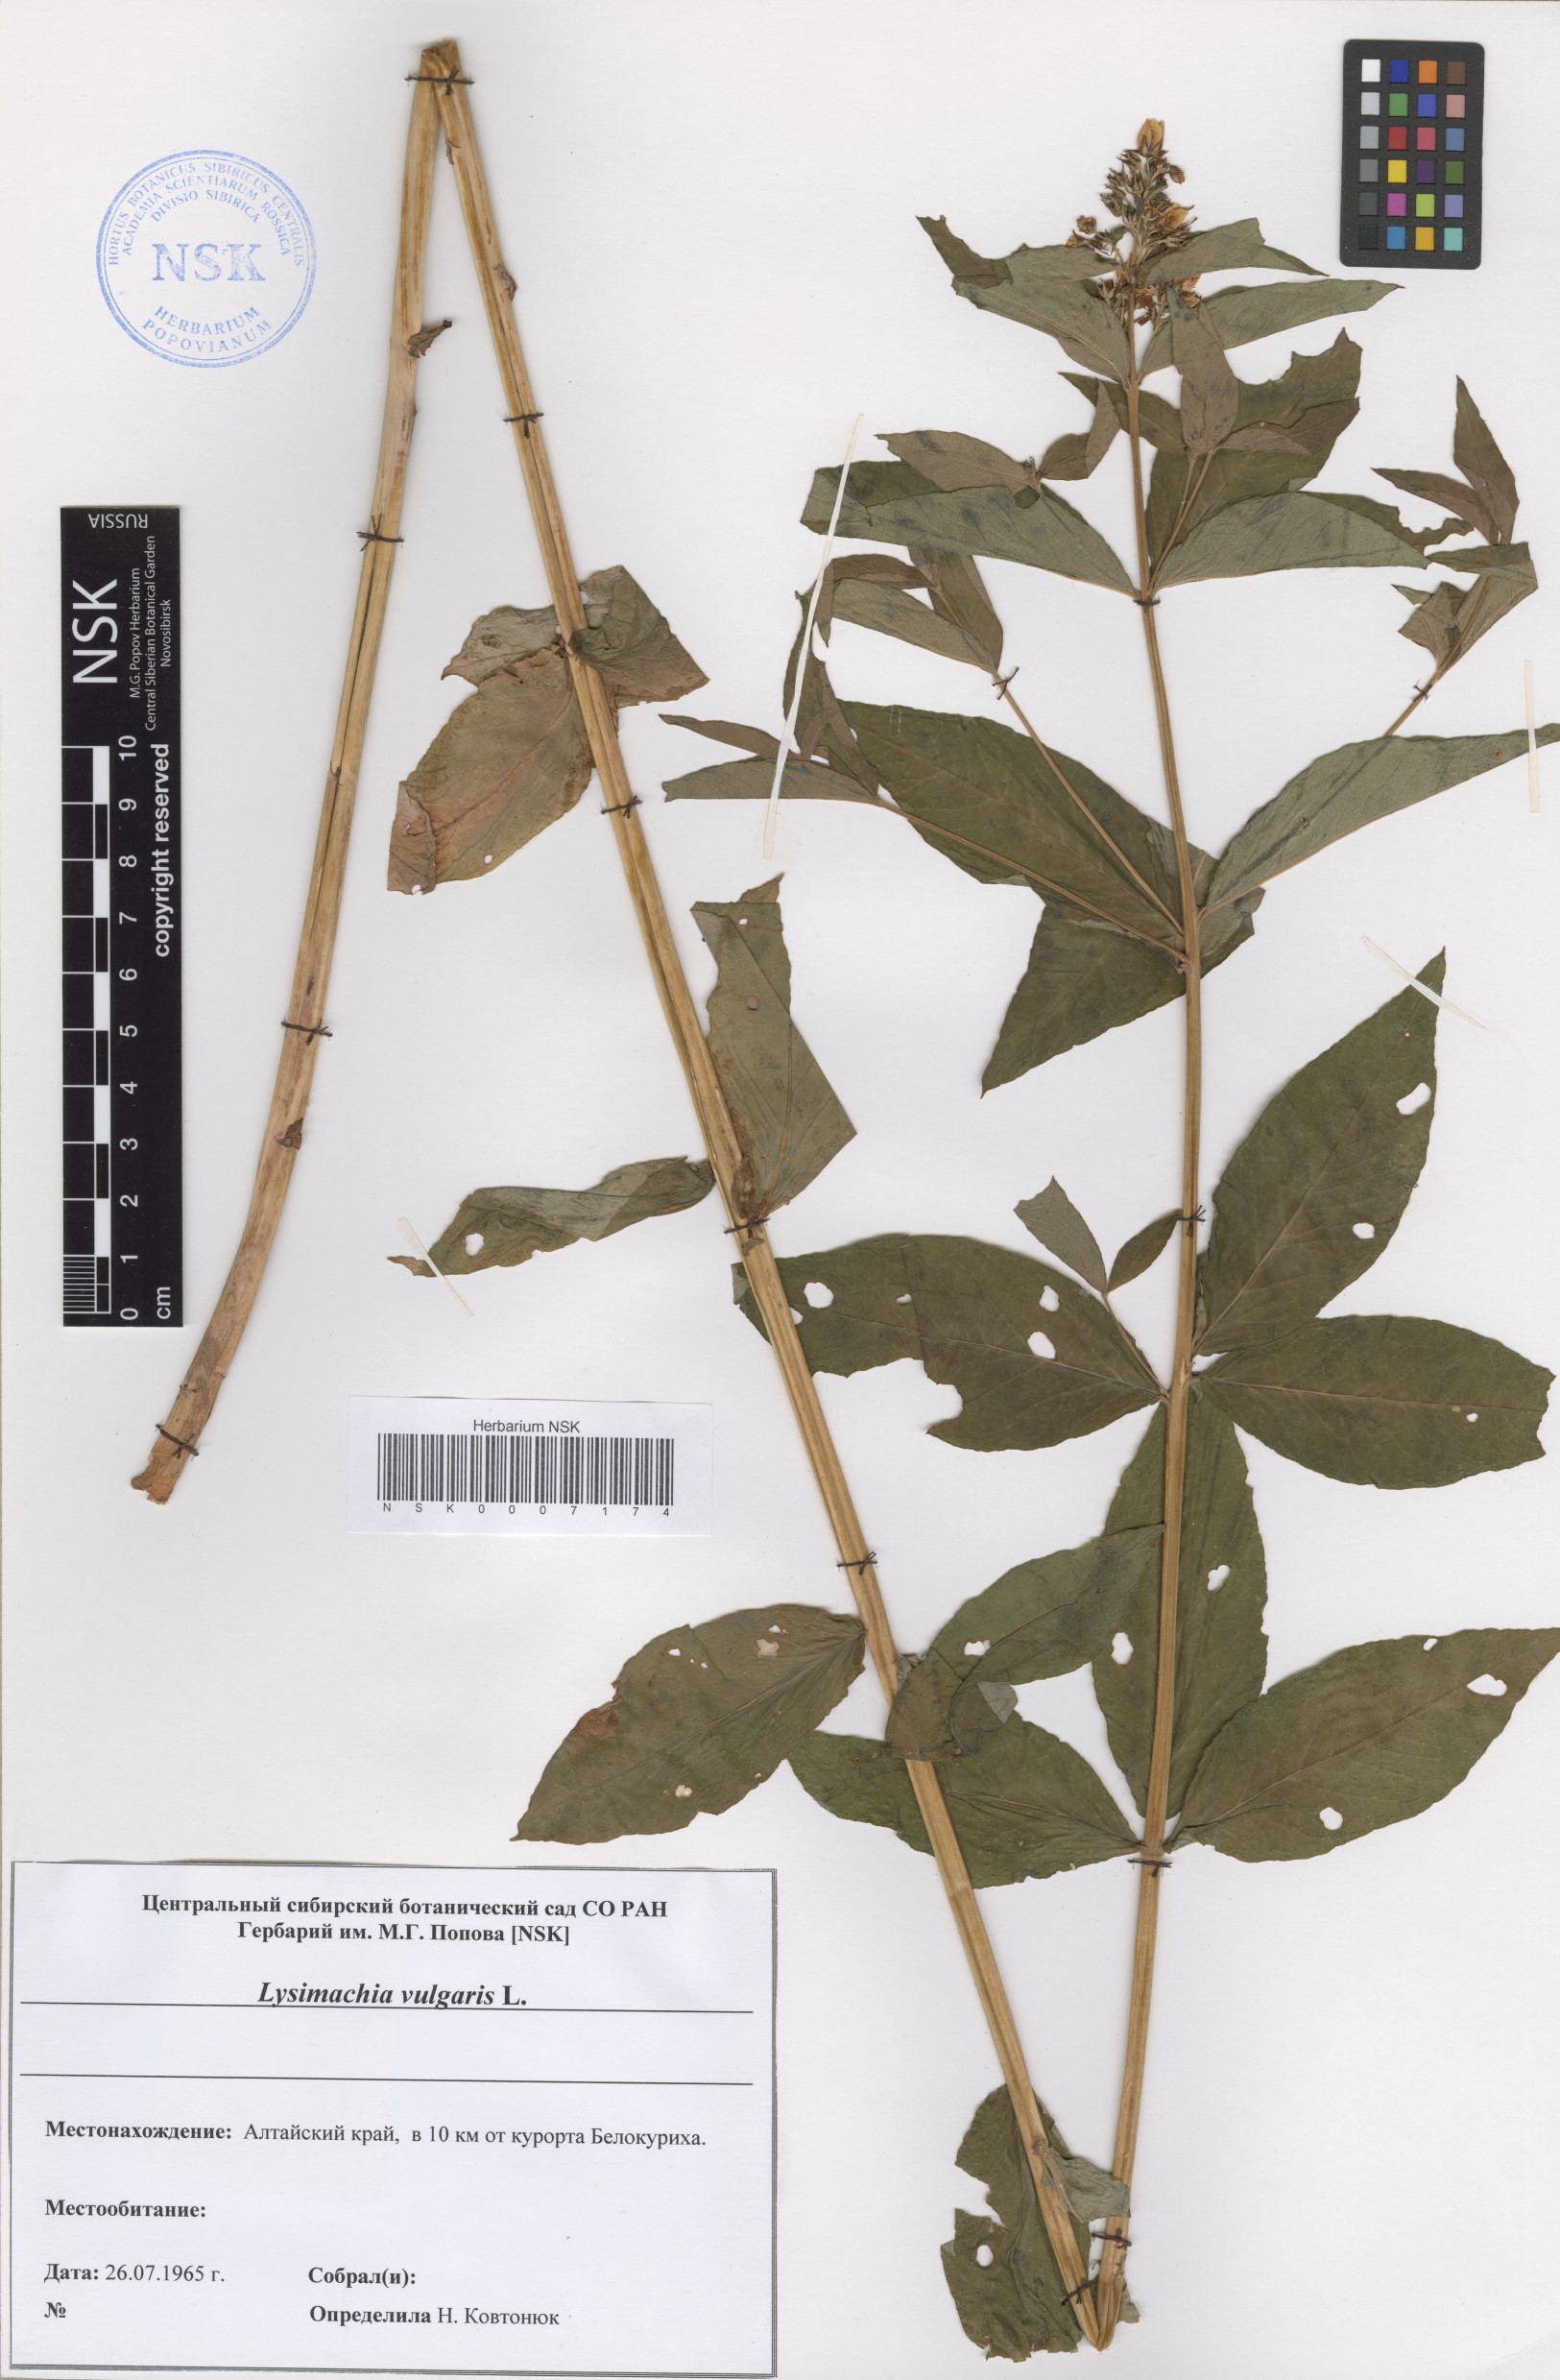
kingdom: Plantae
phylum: Tracheophyta
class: Magnoliopsida
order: Ericales
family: Primulaceae
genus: Lysimachia
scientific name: Lysimachia vulgaris
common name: Yellow loosestrife
